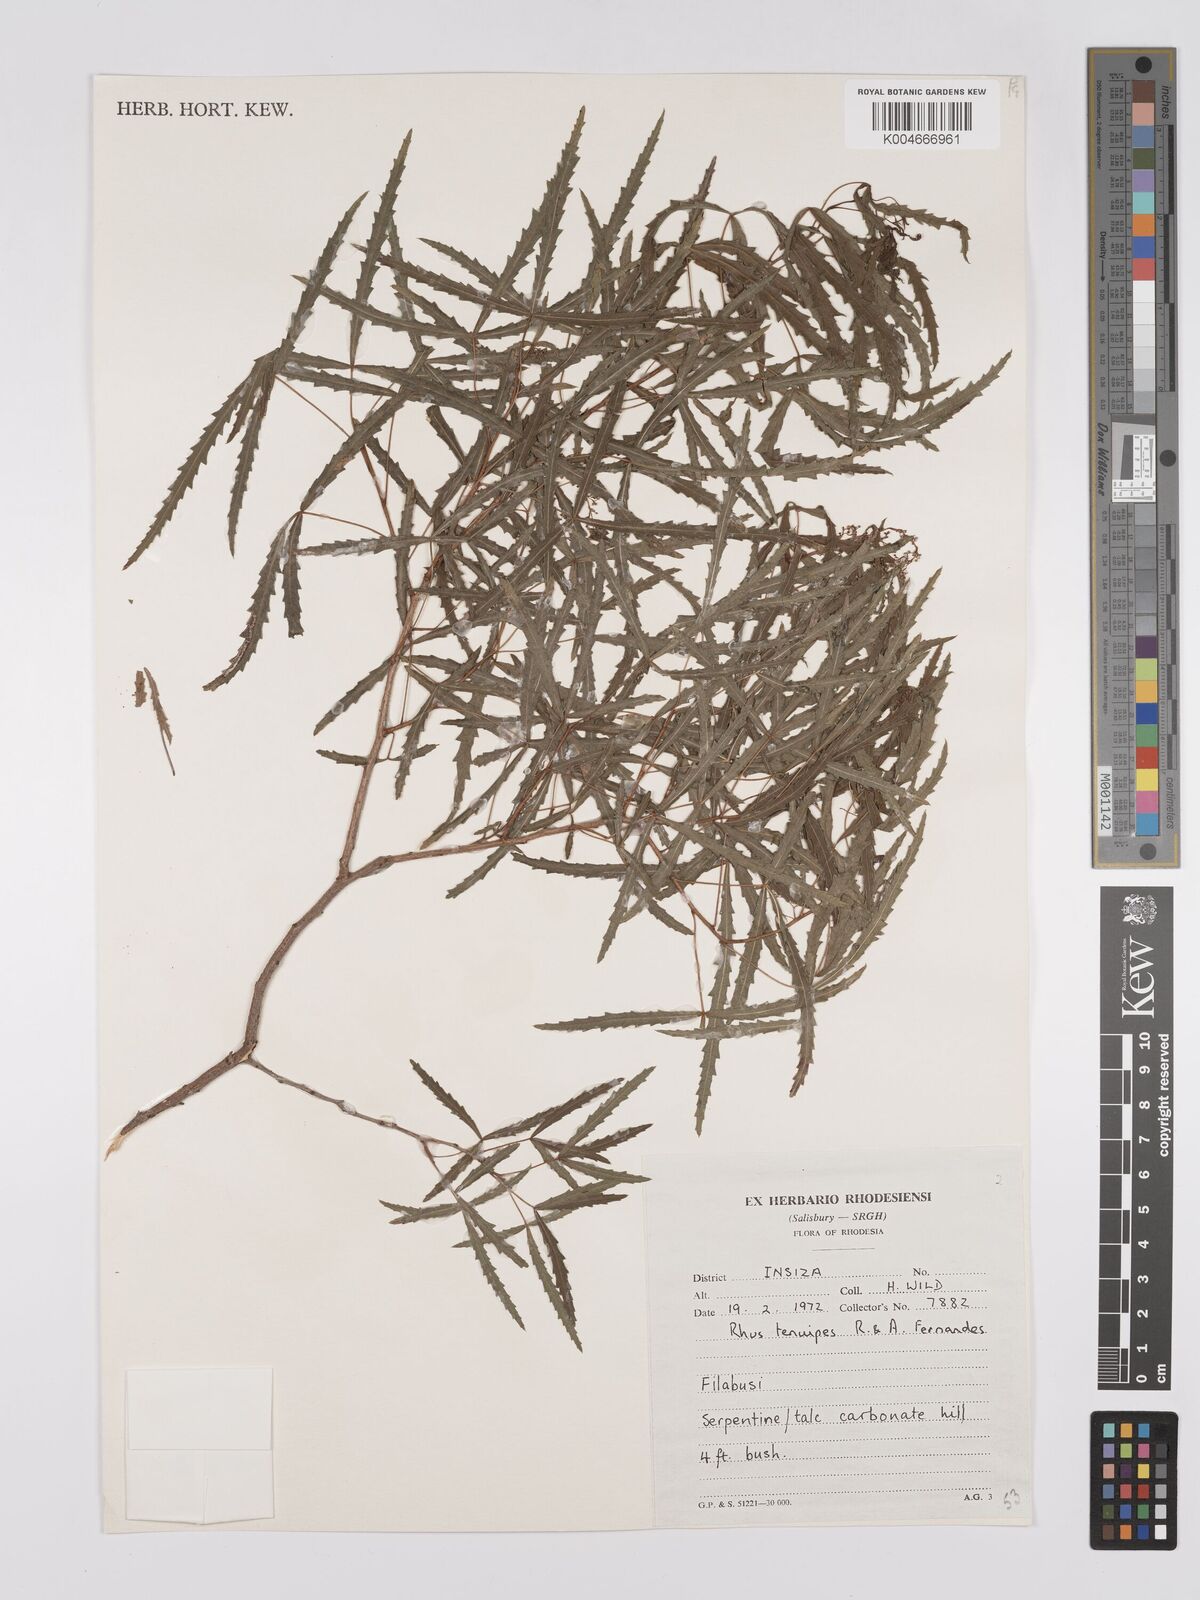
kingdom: Plantae
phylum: Tracheophyta
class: Magnoliopsida
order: Sapindales
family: Anacardiaceae
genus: Searsia
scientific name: Searsia tenuipes
